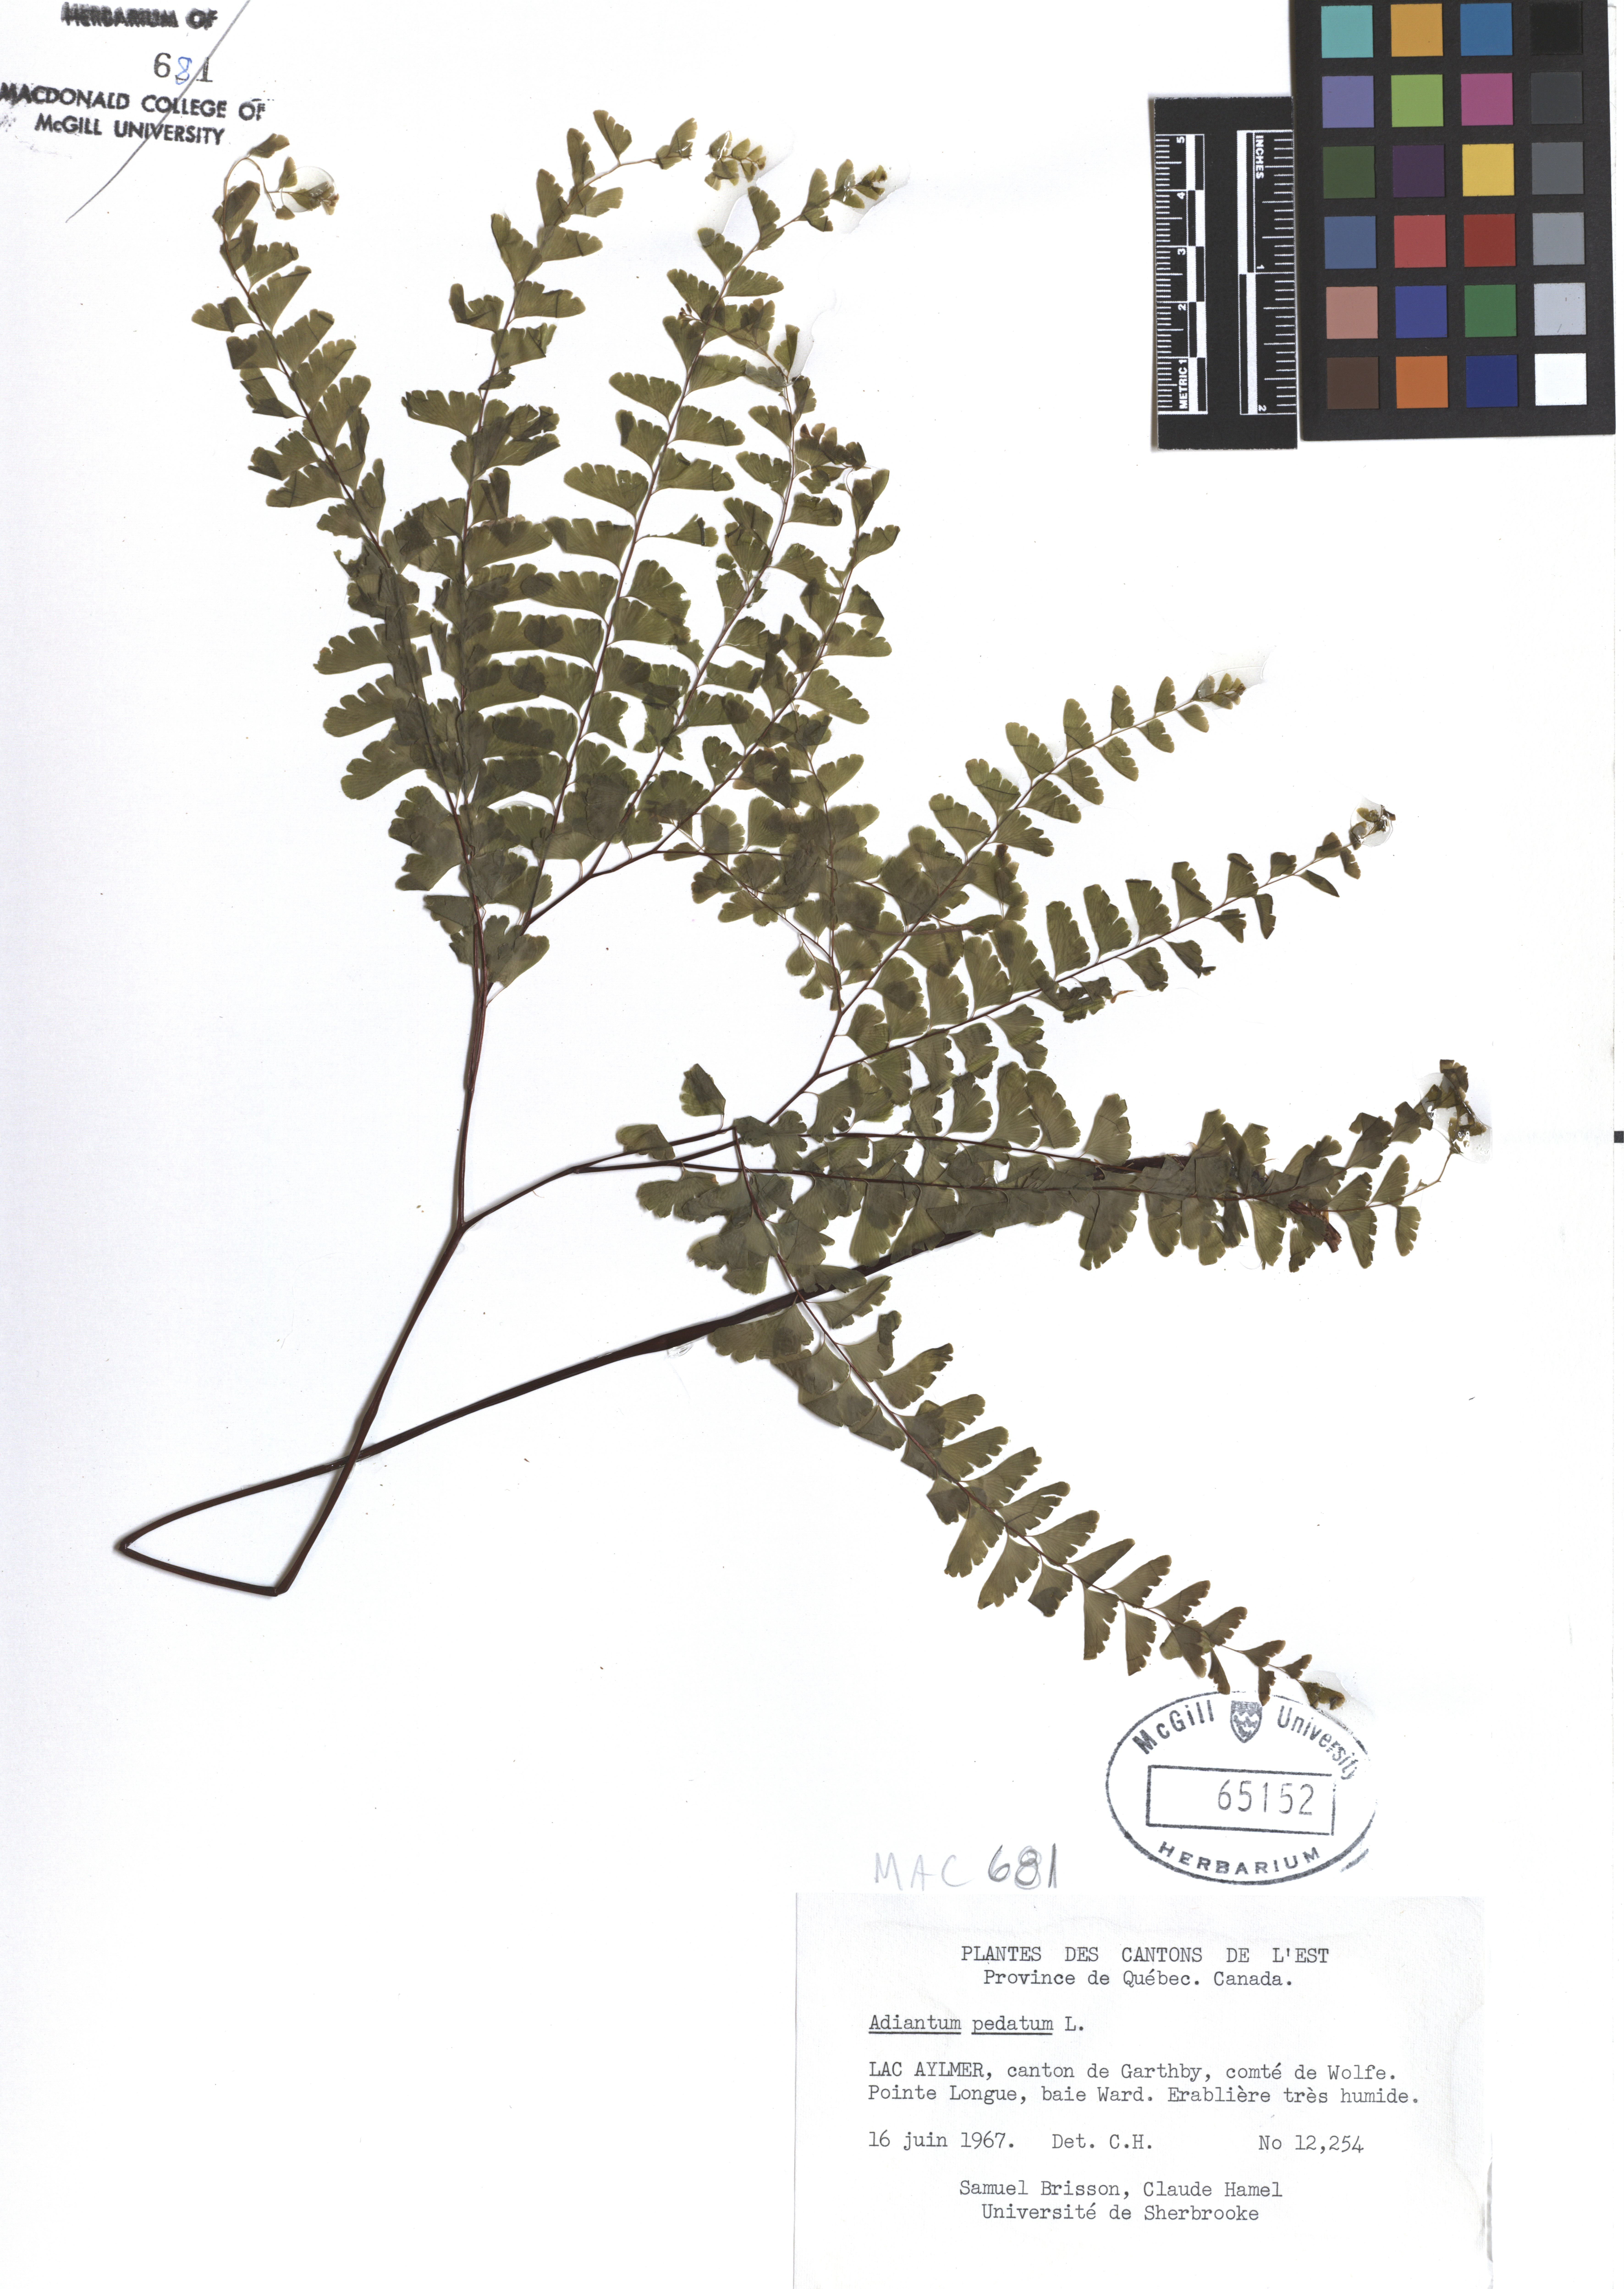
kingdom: Plantae
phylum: Tracheophyta
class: Polypodiopsida
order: Polypodiales
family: Pteridaceae
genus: Adiantum
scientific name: Adiantum pedatum
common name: Five-finger fern
